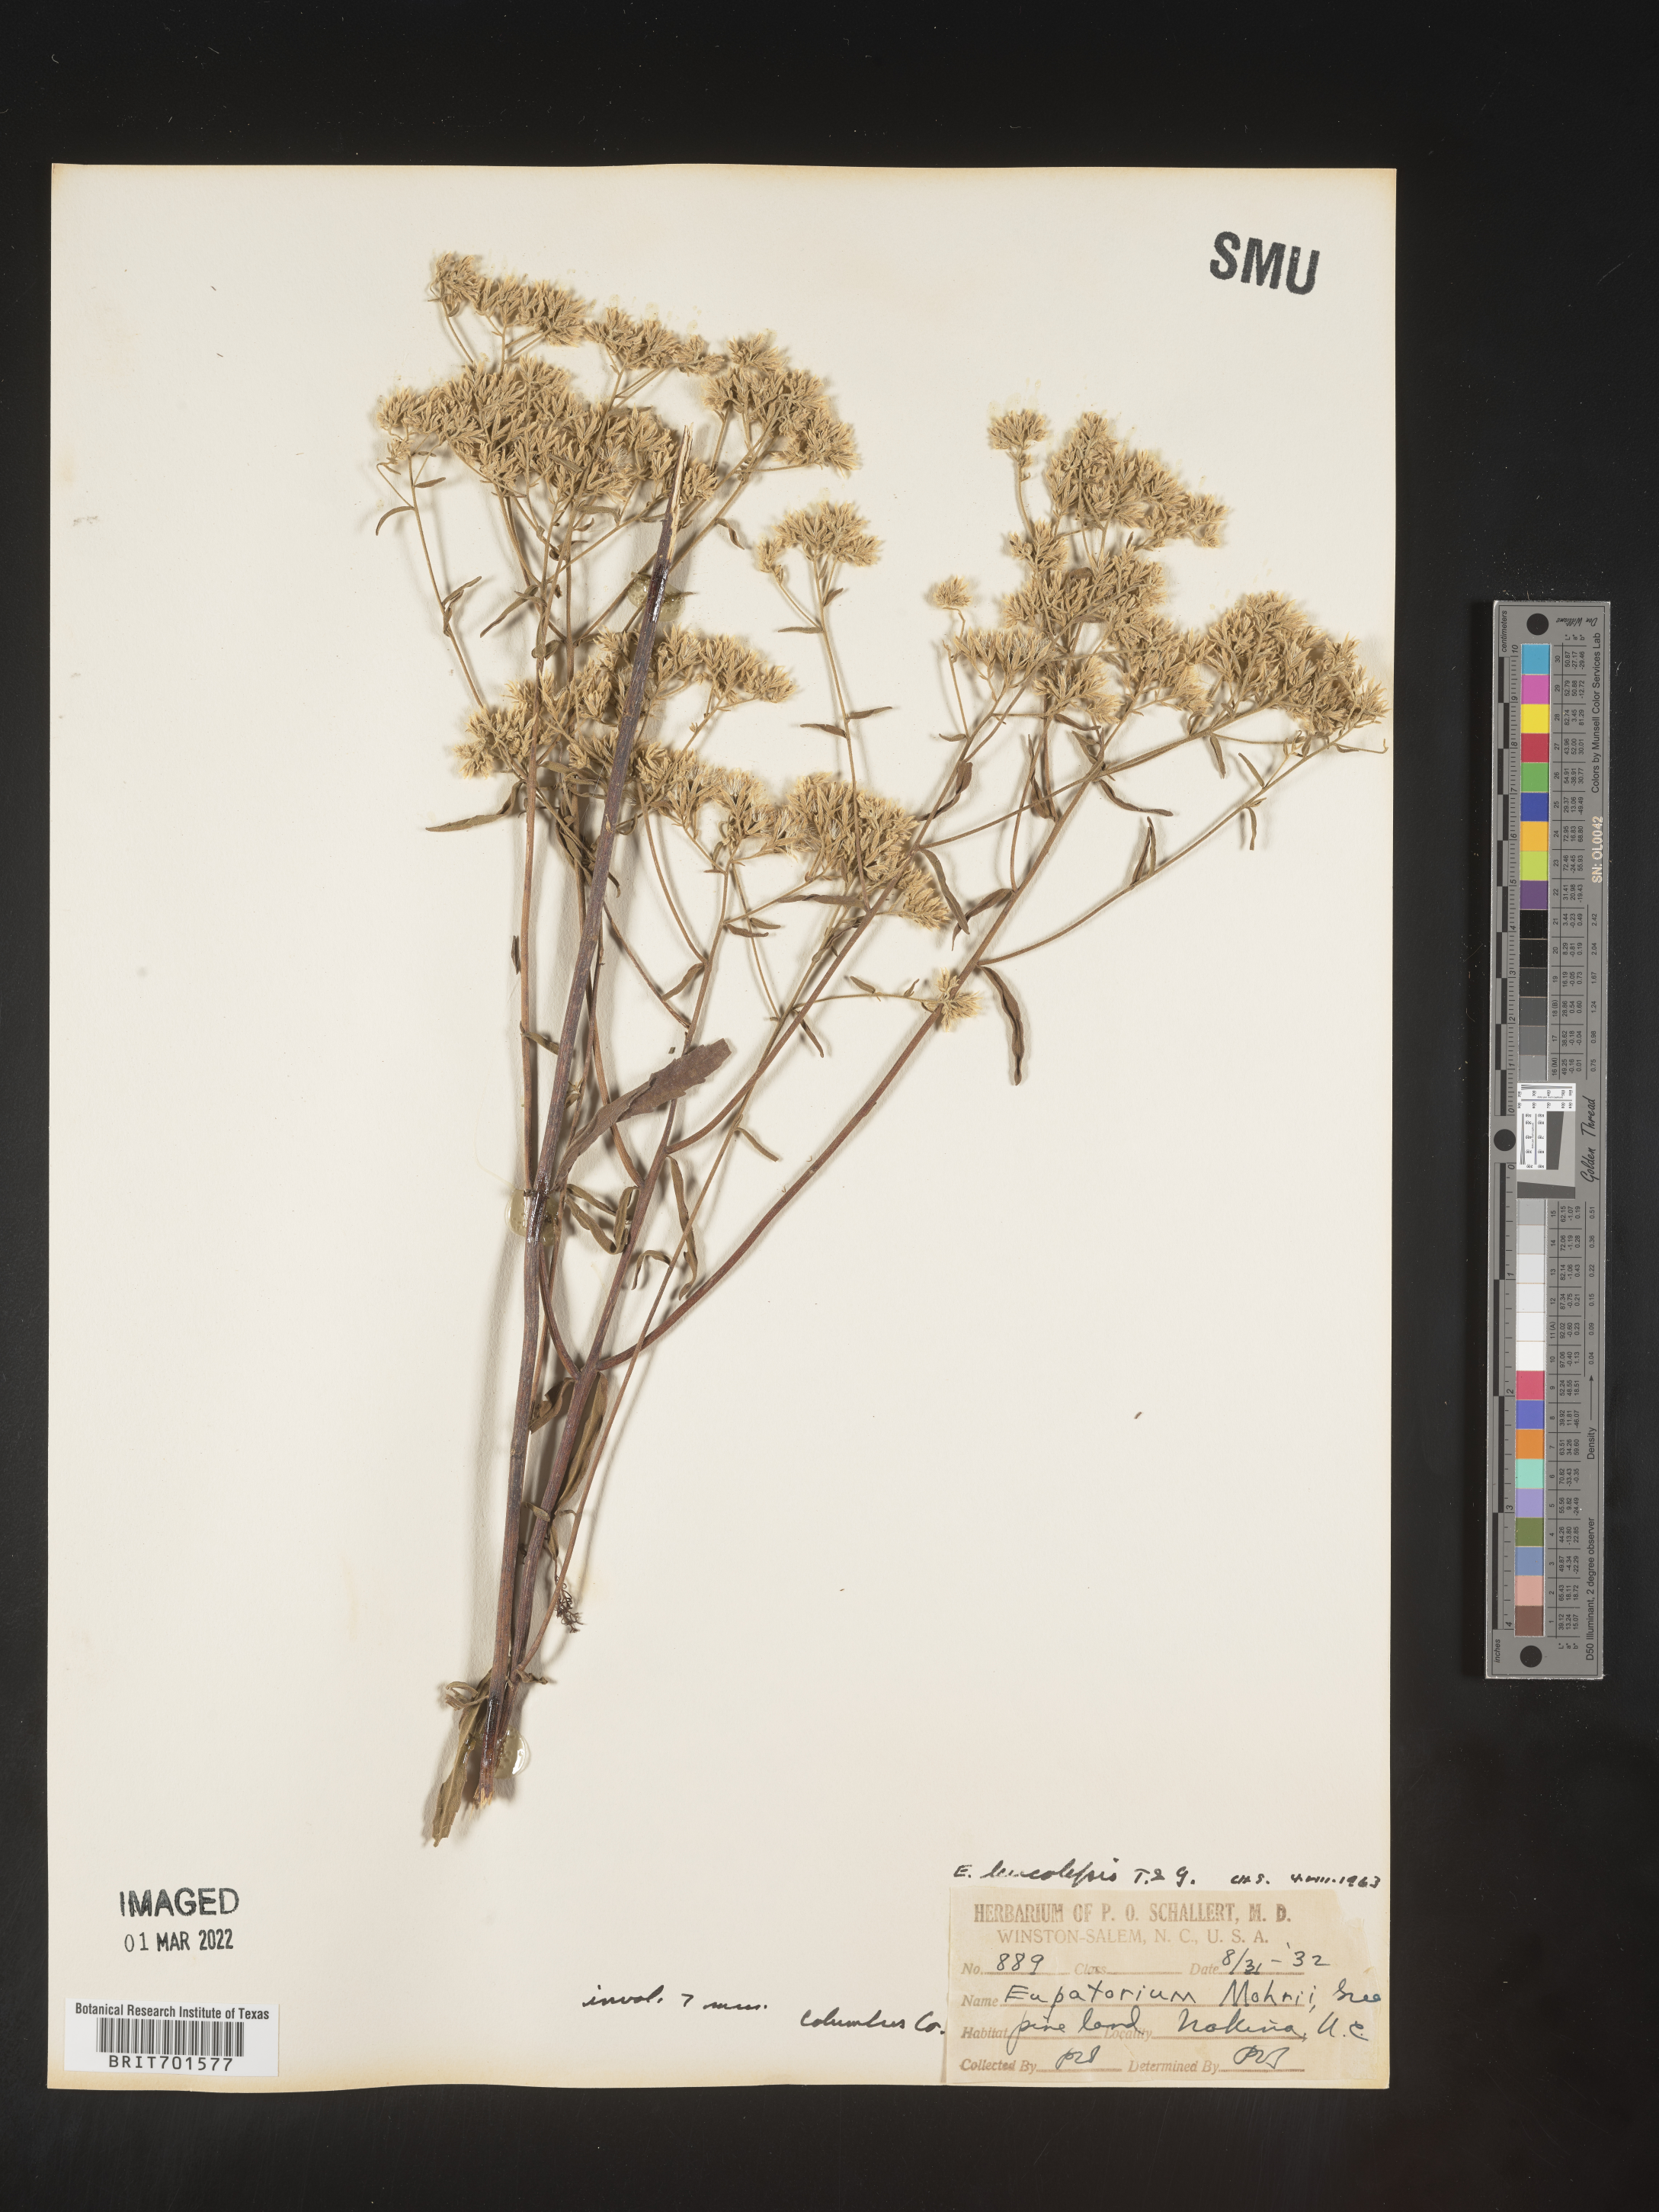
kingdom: Plantae
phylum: Tracheophyta
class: Magnoliopsida
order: Asterales
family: Asteraceae
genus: Eupatorium
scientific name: Eupatorium leucolepis
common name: Justiceweed
